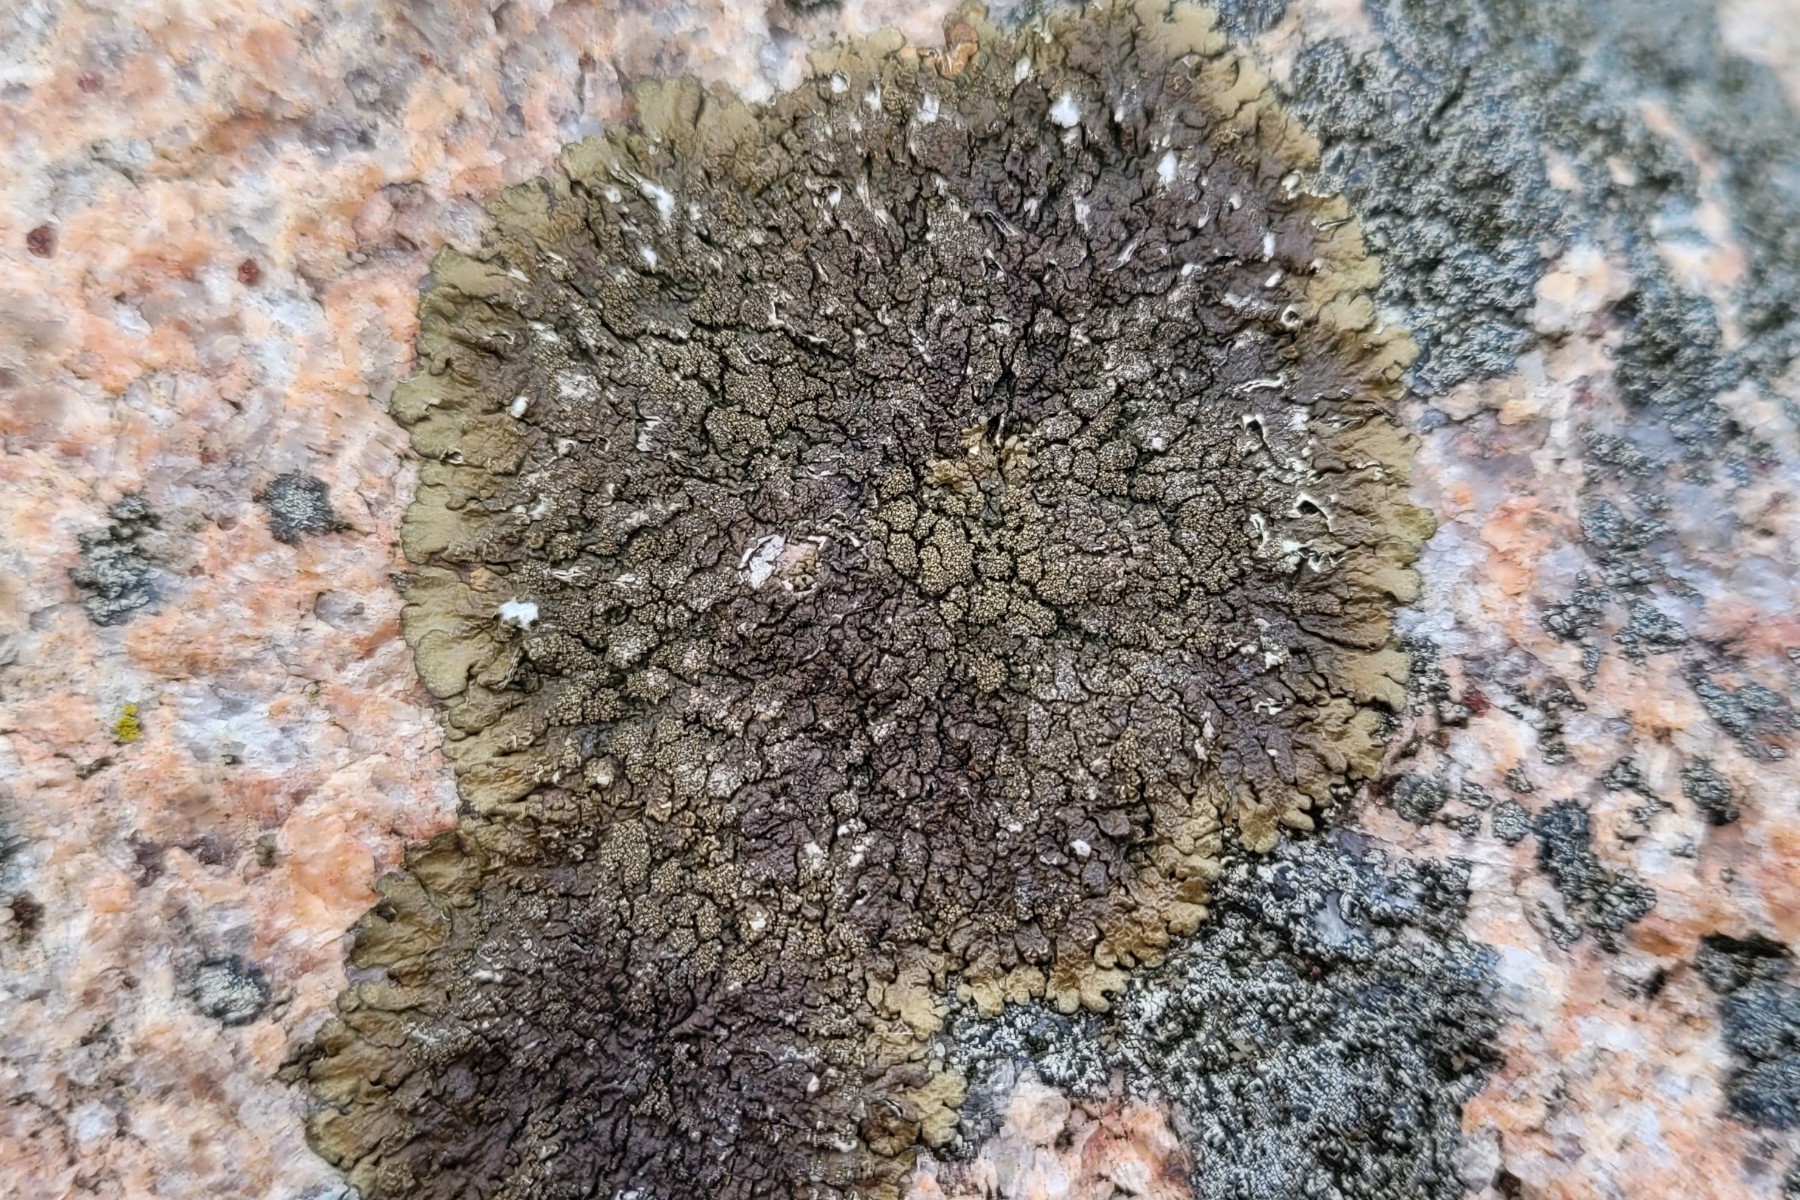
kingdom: Fungi
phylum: Ascomycota
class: Lecanoromycetes
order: Lecanorales
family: Parmeliaceae
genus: Xanthoparmelia
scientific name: Xanthoparmelia verruculifera
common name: småknoppet skållav
